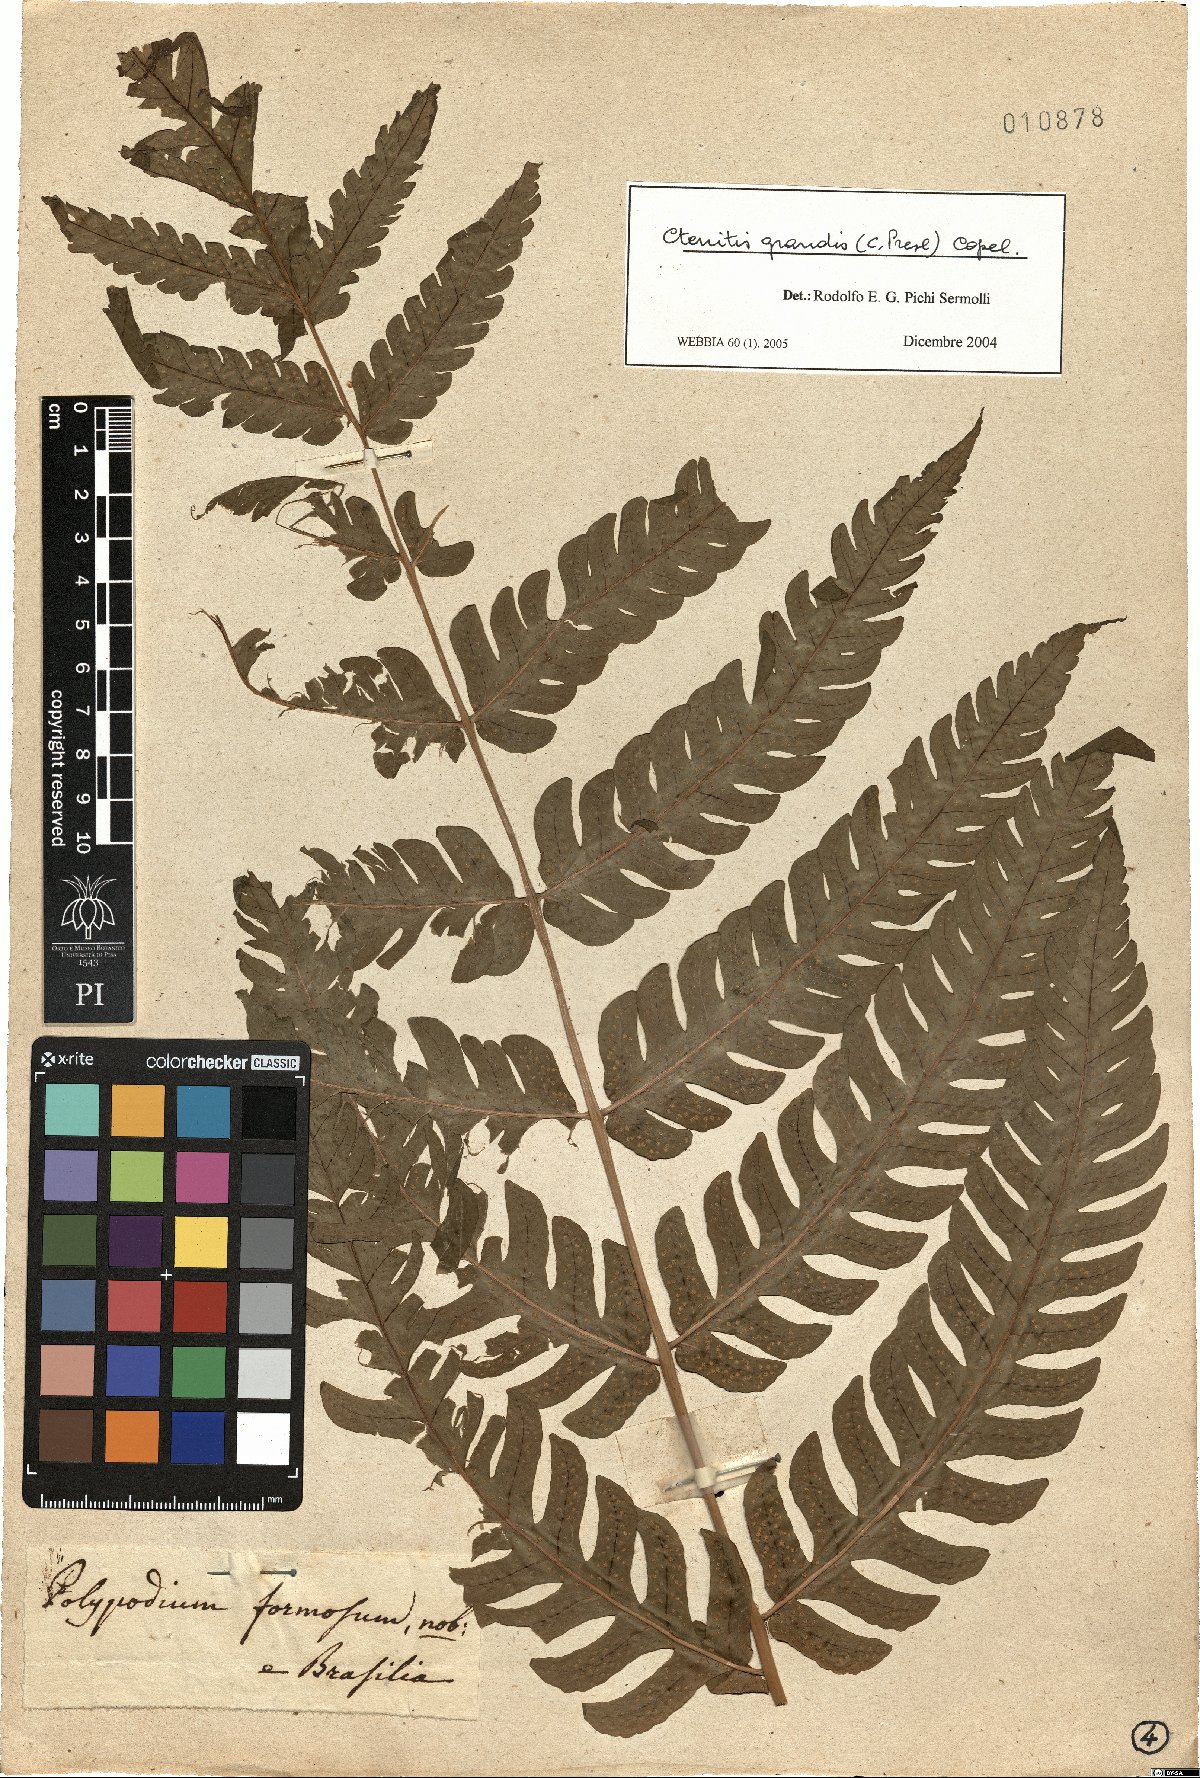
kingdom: Plantae
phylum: Tracheophyta
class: Polypodiopsida
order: Polypodiales
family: Dryopteridaceae
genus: Megalastrum
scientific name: Megalastrum grande
